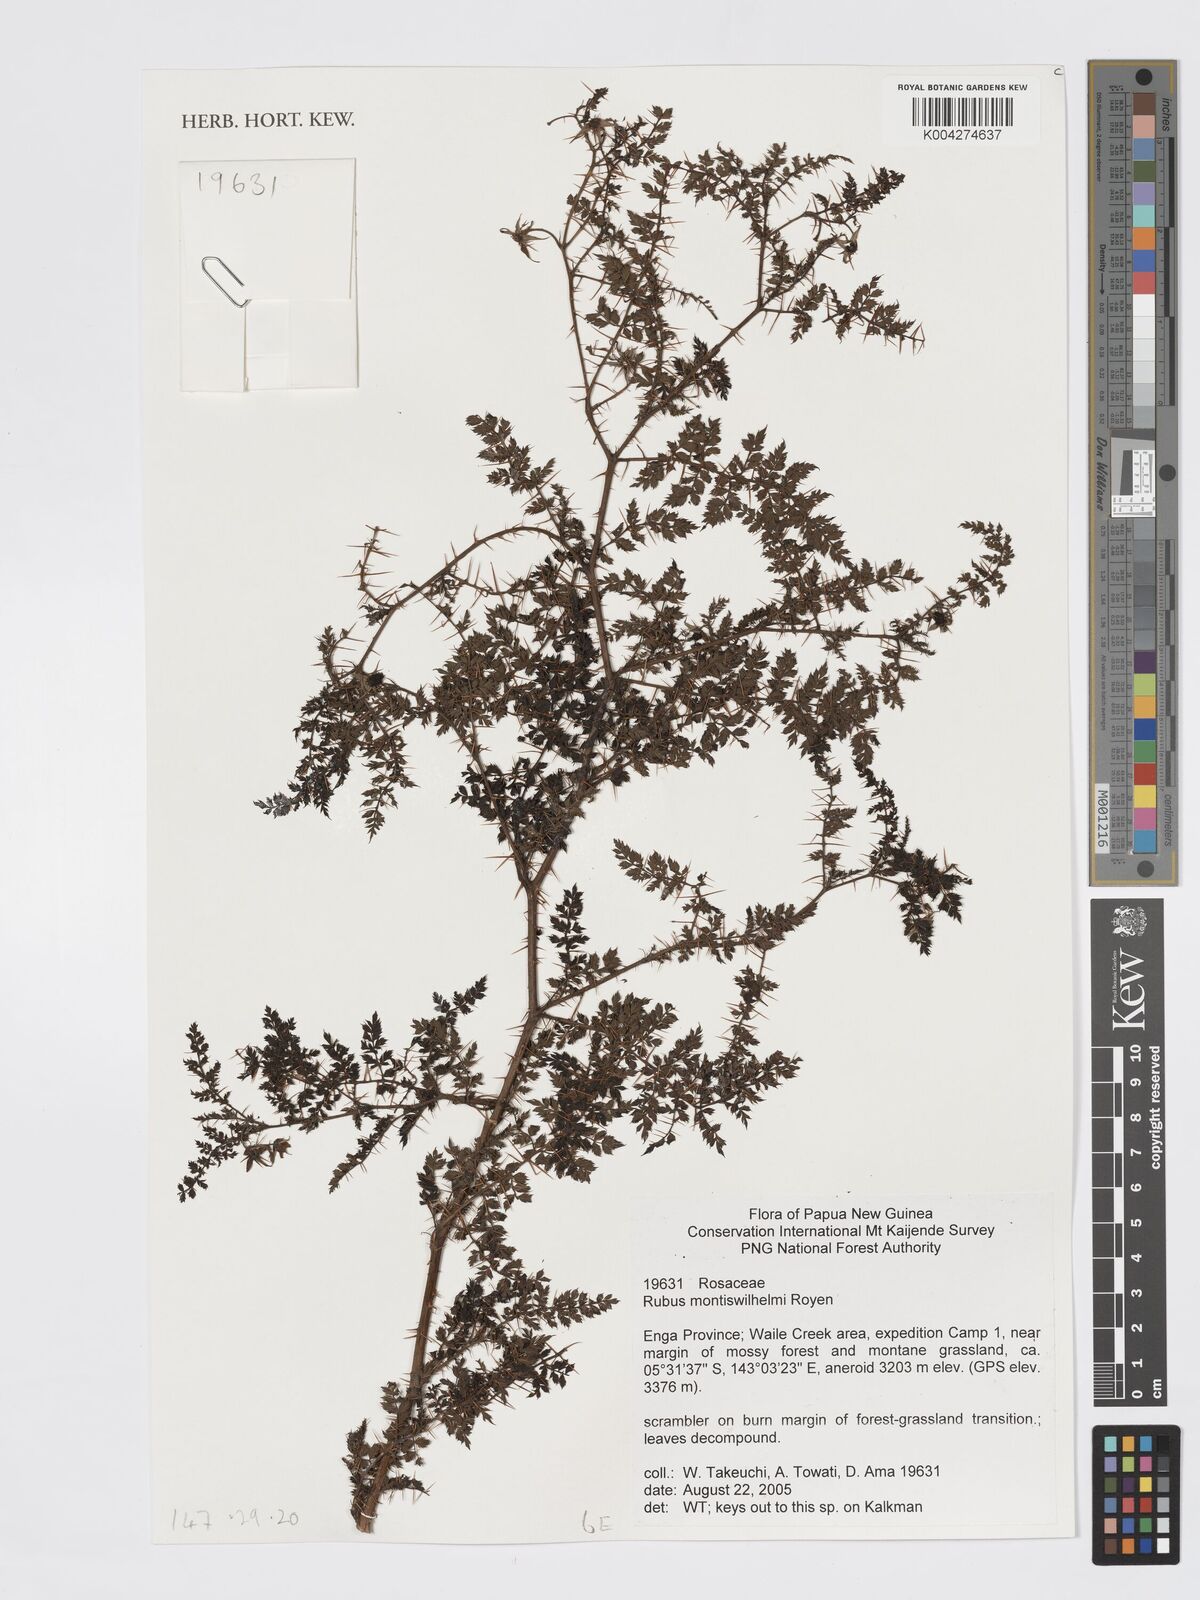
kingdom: Plantae
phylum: Tracheophyta
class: Magnoliopsida
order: Rosales
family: Rosaceae
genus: Rubus
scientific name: Rubus montis-wilhelmii
